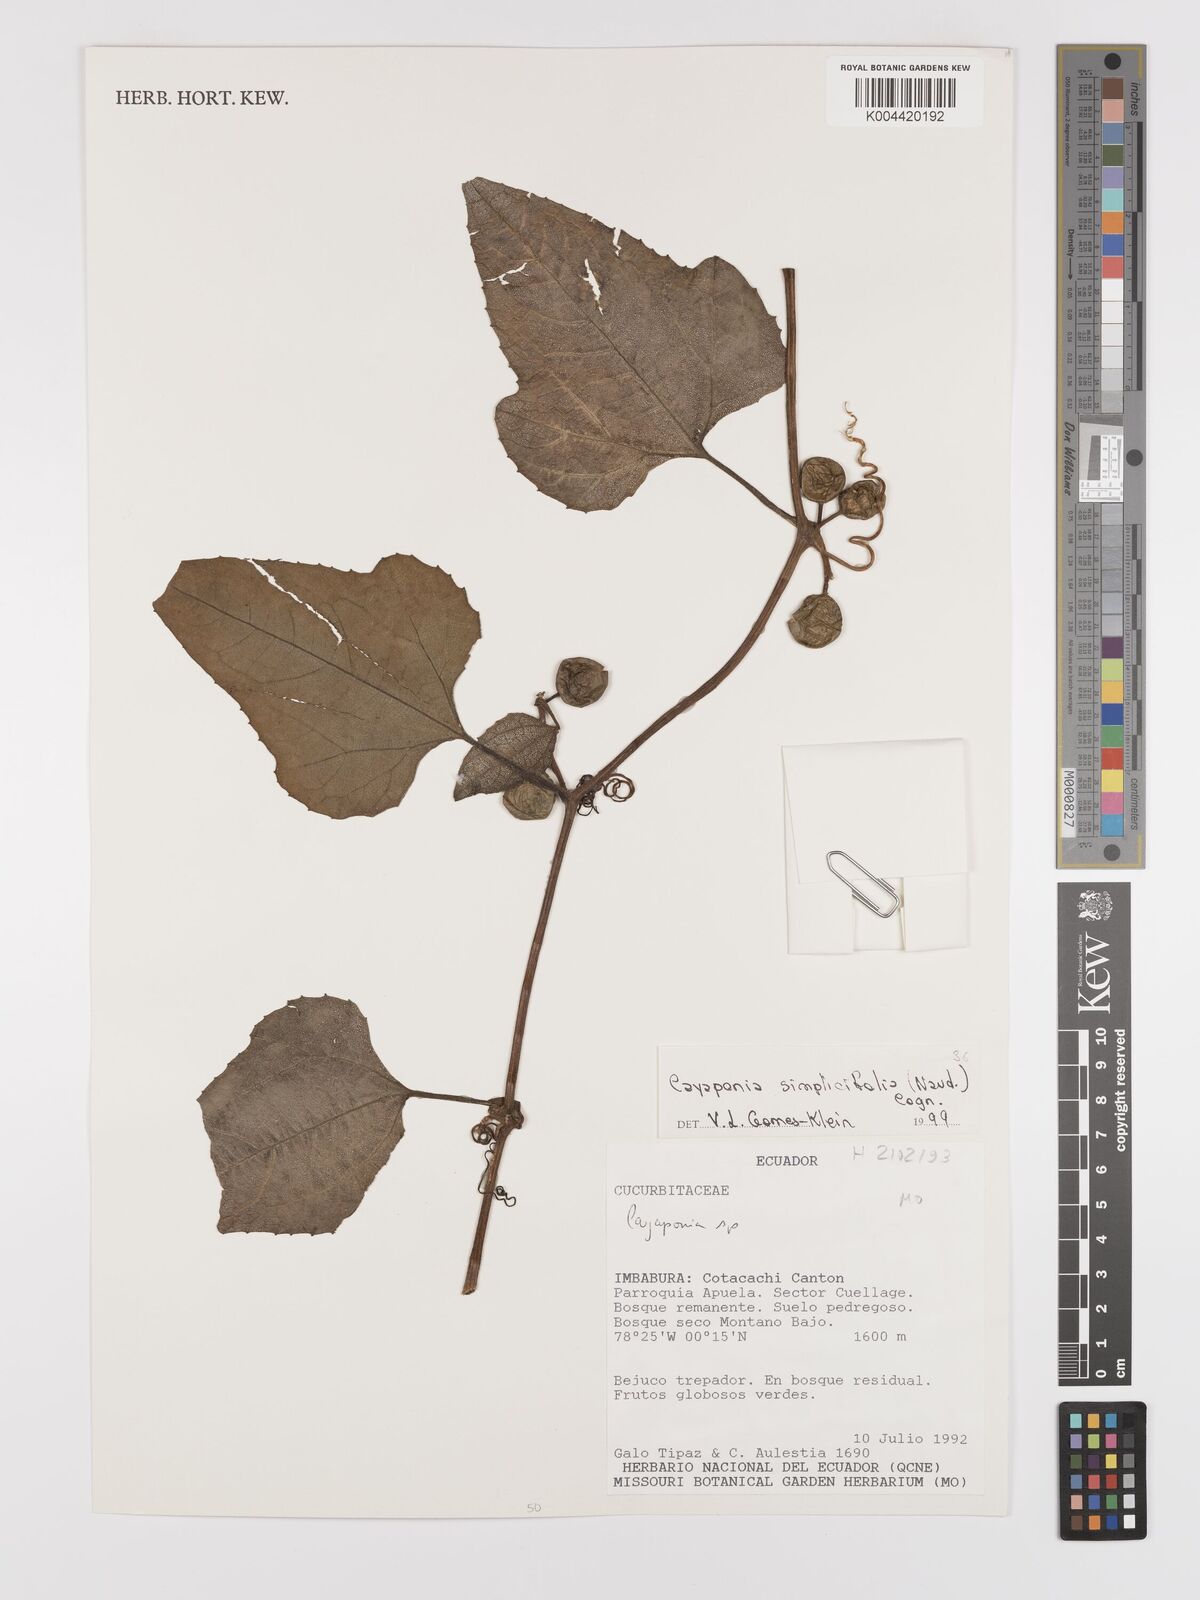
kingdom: Plantae
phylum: Tracheophyta
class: Magnoliopsida
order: Cucurbitales
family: Cucurbitaceae
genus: Cayaponia
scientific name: Cayaponia simplicifolia
